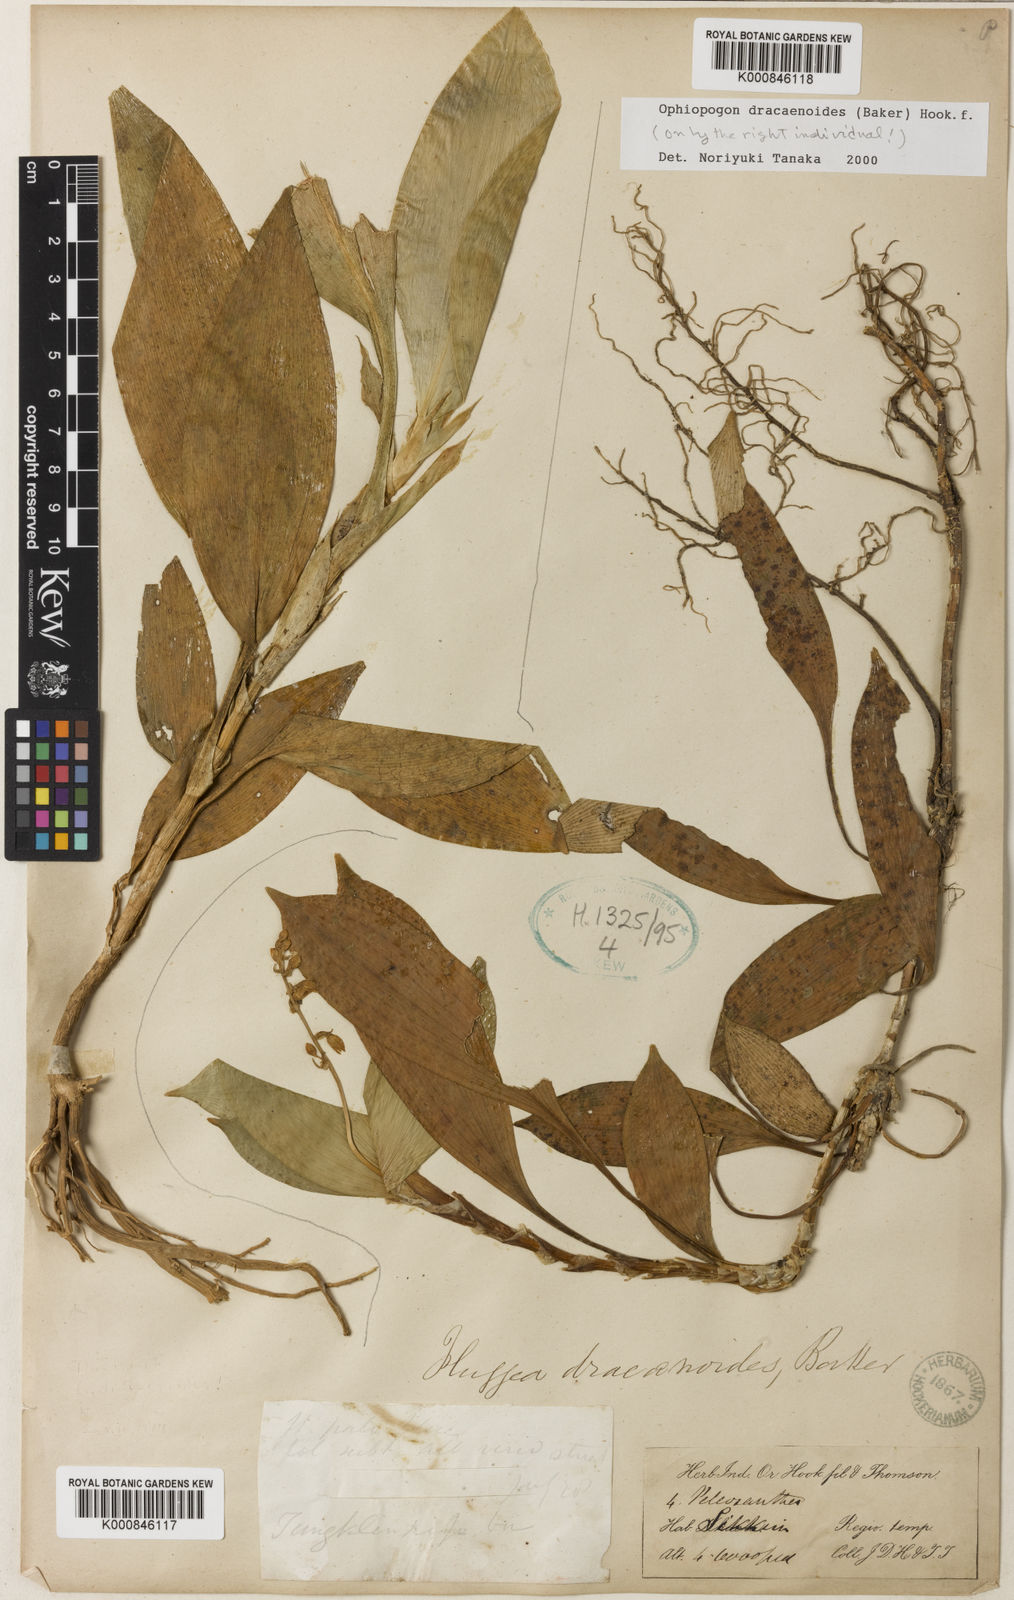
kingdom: Plantae
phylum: Tracheophyta
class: Liliopsida
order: Asparagales
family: Asparagaceae
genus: Ophiopogon
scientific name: Ophiopogon dracaenoides
